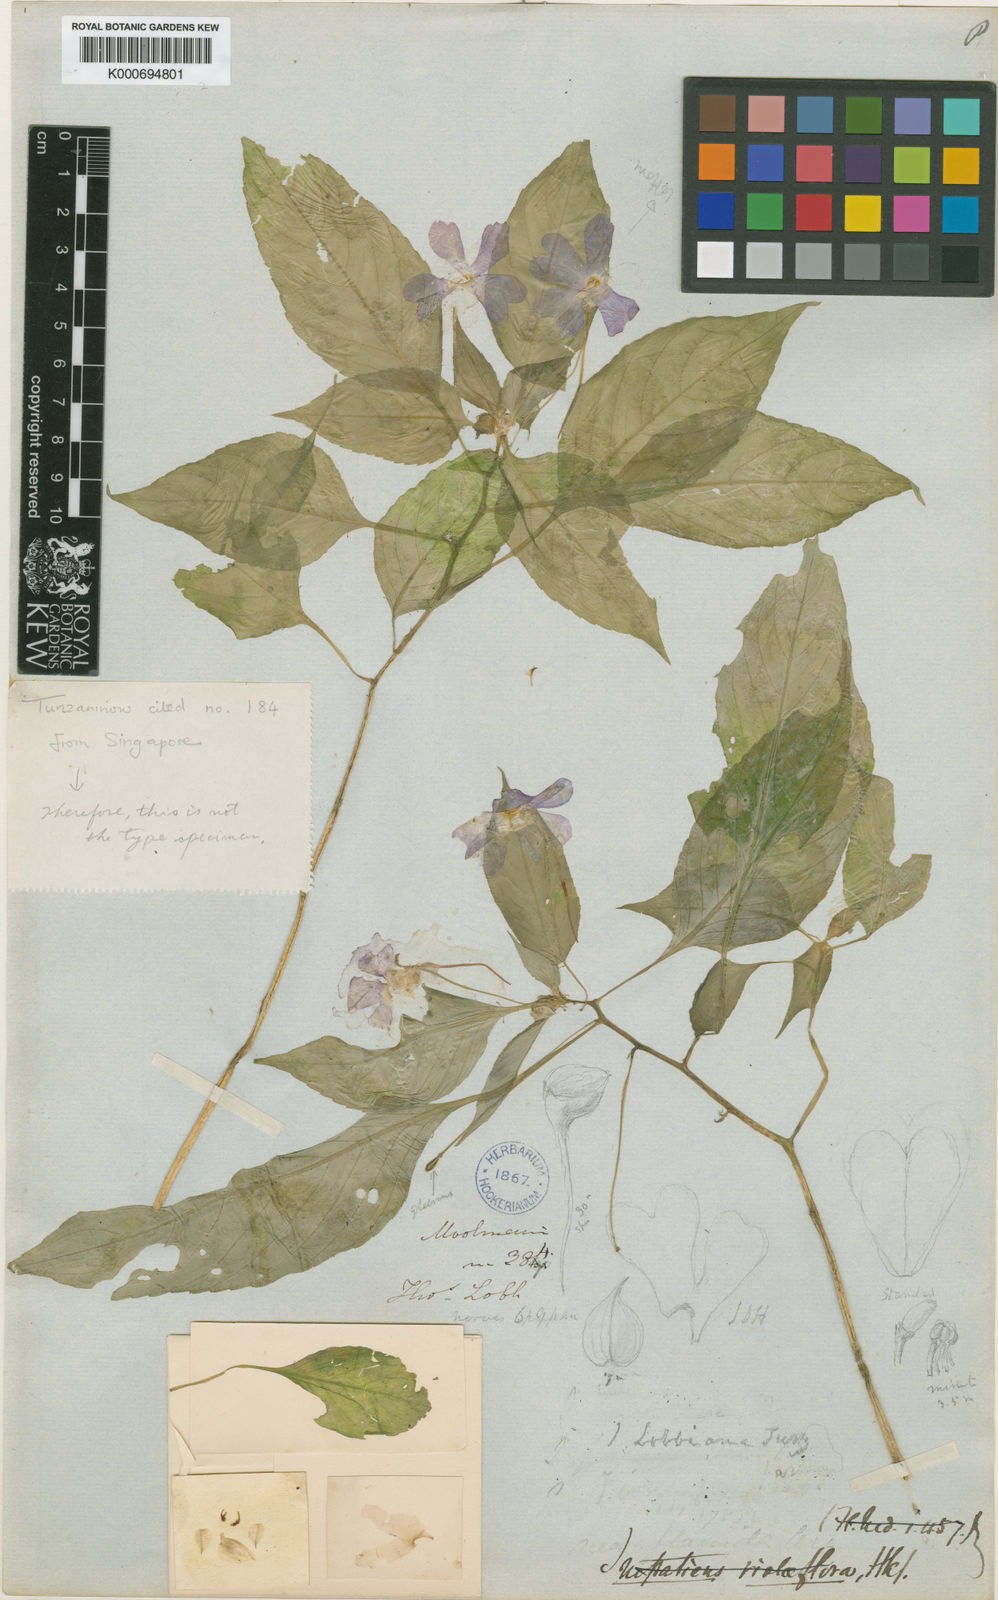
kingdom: Plantae
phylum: Tracheophyta
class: Magnoliopsida
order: Ericales
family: Balsaminaceae
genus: Impatiens
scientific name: Impatiens lobbiana
